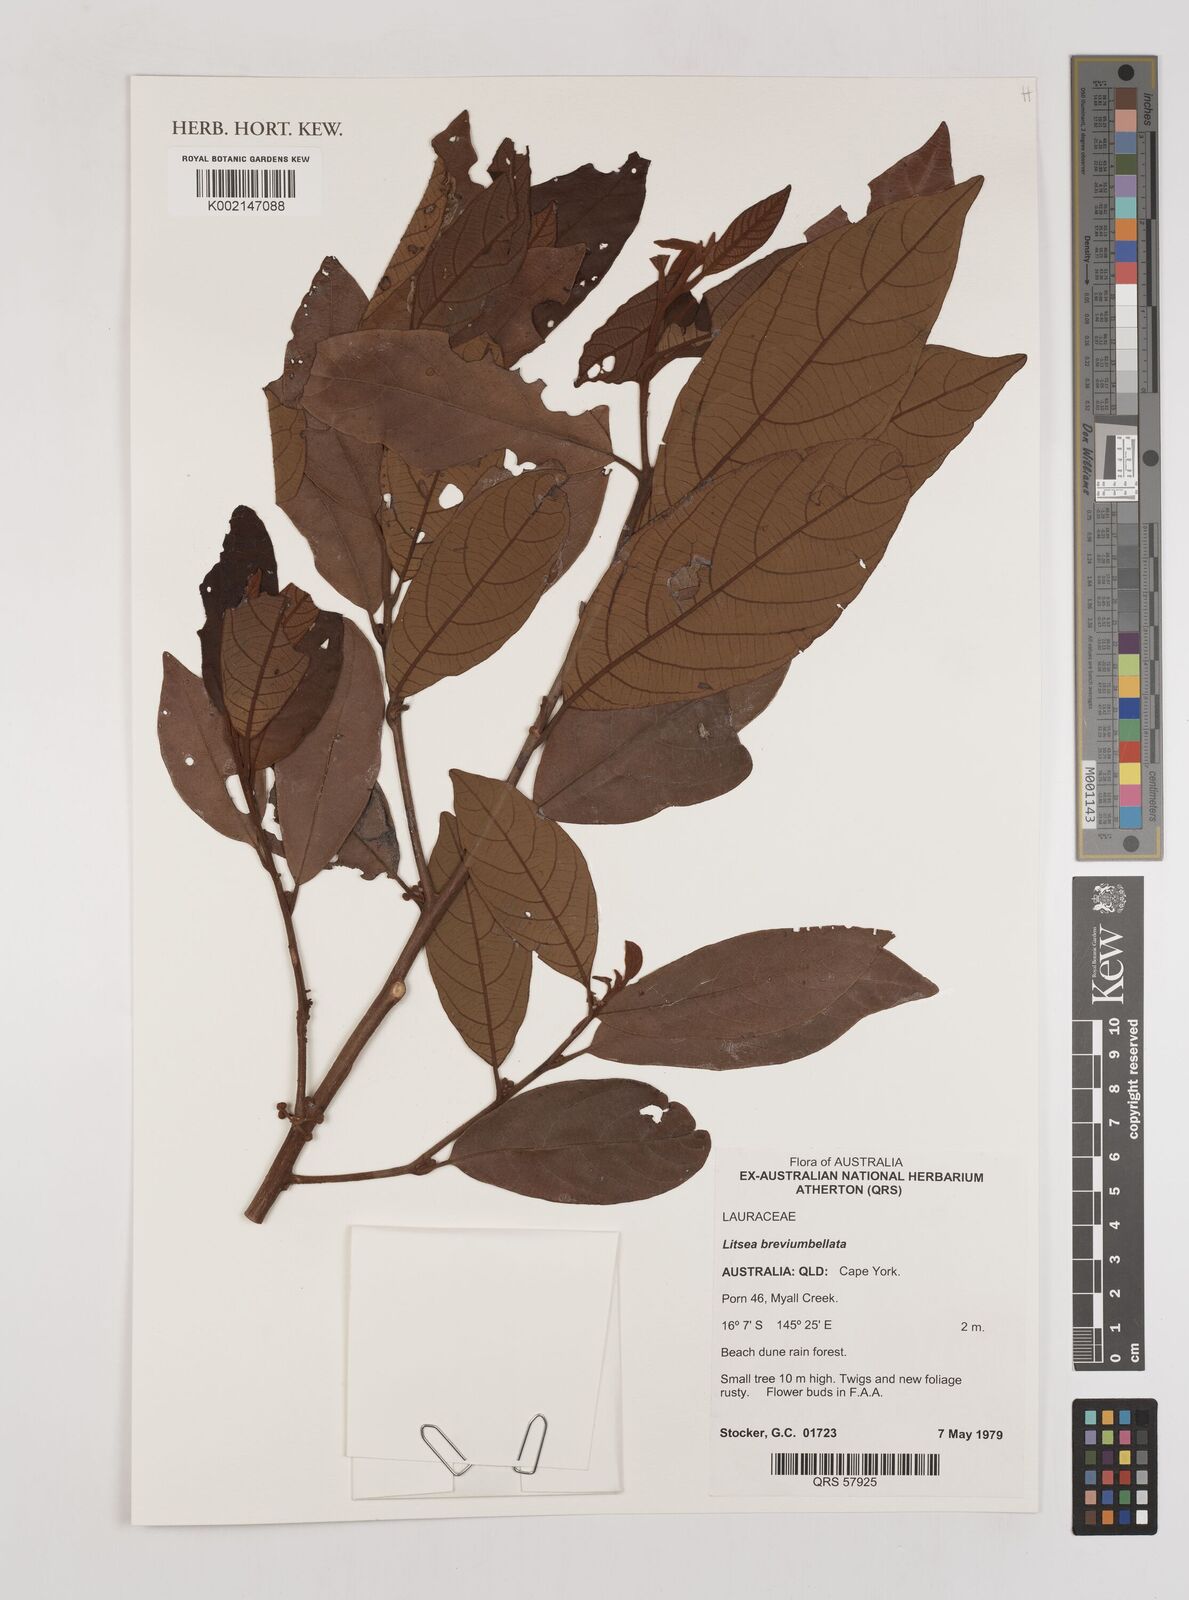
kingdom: Plantae
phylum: Tracheophyta
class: Magnoliopsida
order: Laurales
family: Lauraceae
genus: Litsea
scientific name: Litsea breviumbellata
